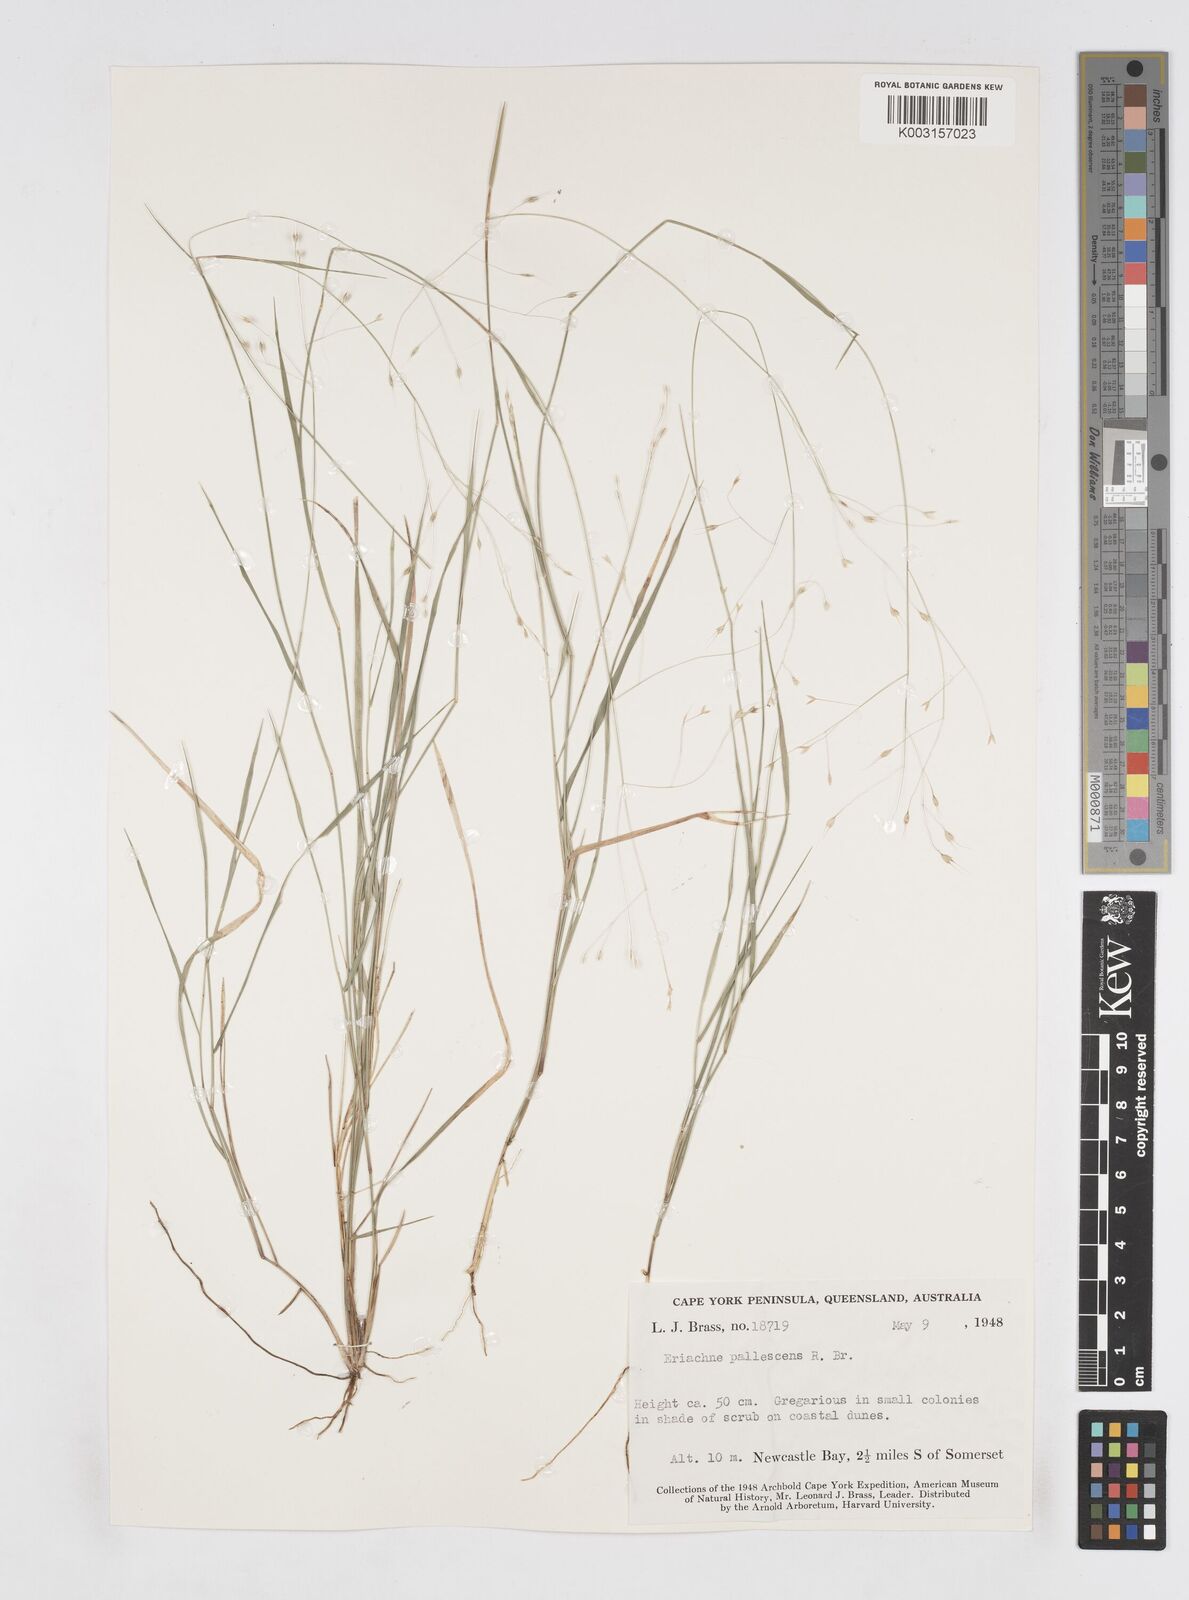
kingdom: Plantae
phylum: Tracheophyta
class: Liliopsida
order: Poales
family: Poaceae
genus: Eriachne
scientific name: Eriachne pallescens
